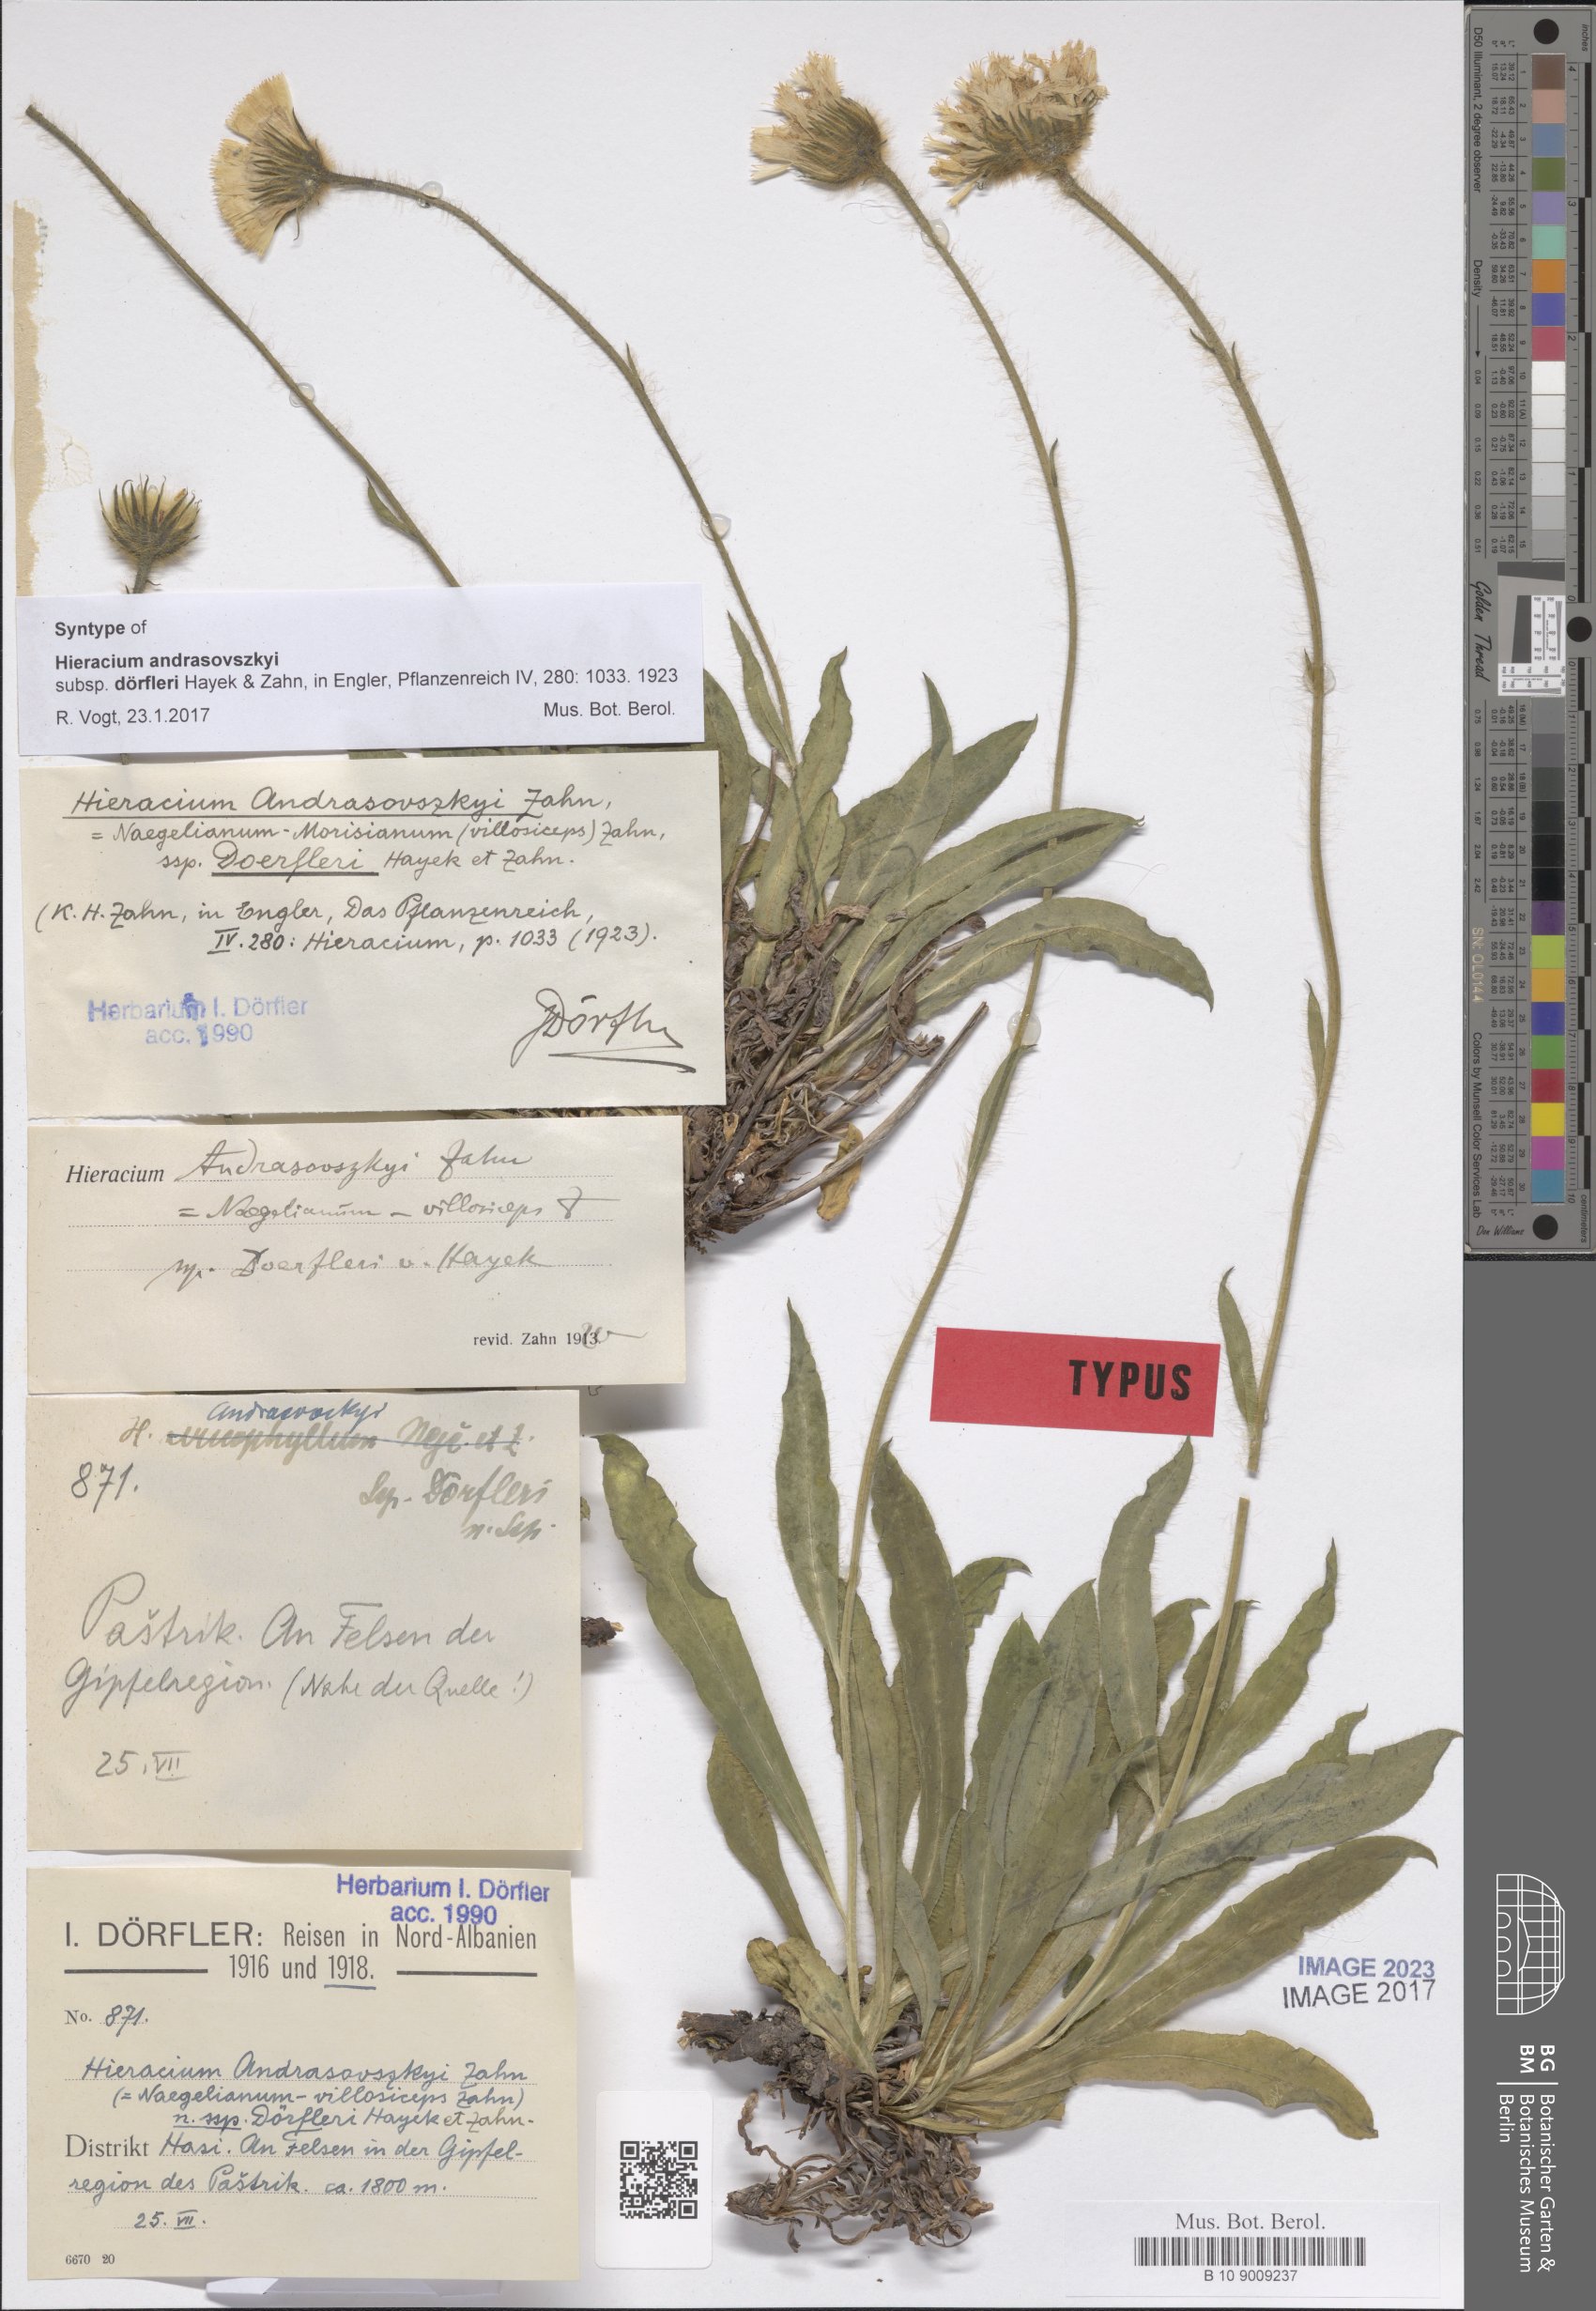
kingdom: Plantae
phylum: Tracheophyta
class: Magnoliopsida
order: Asterales
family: Asteraceae
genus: Hieracium
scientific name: Hieracium andrasovszkyi
